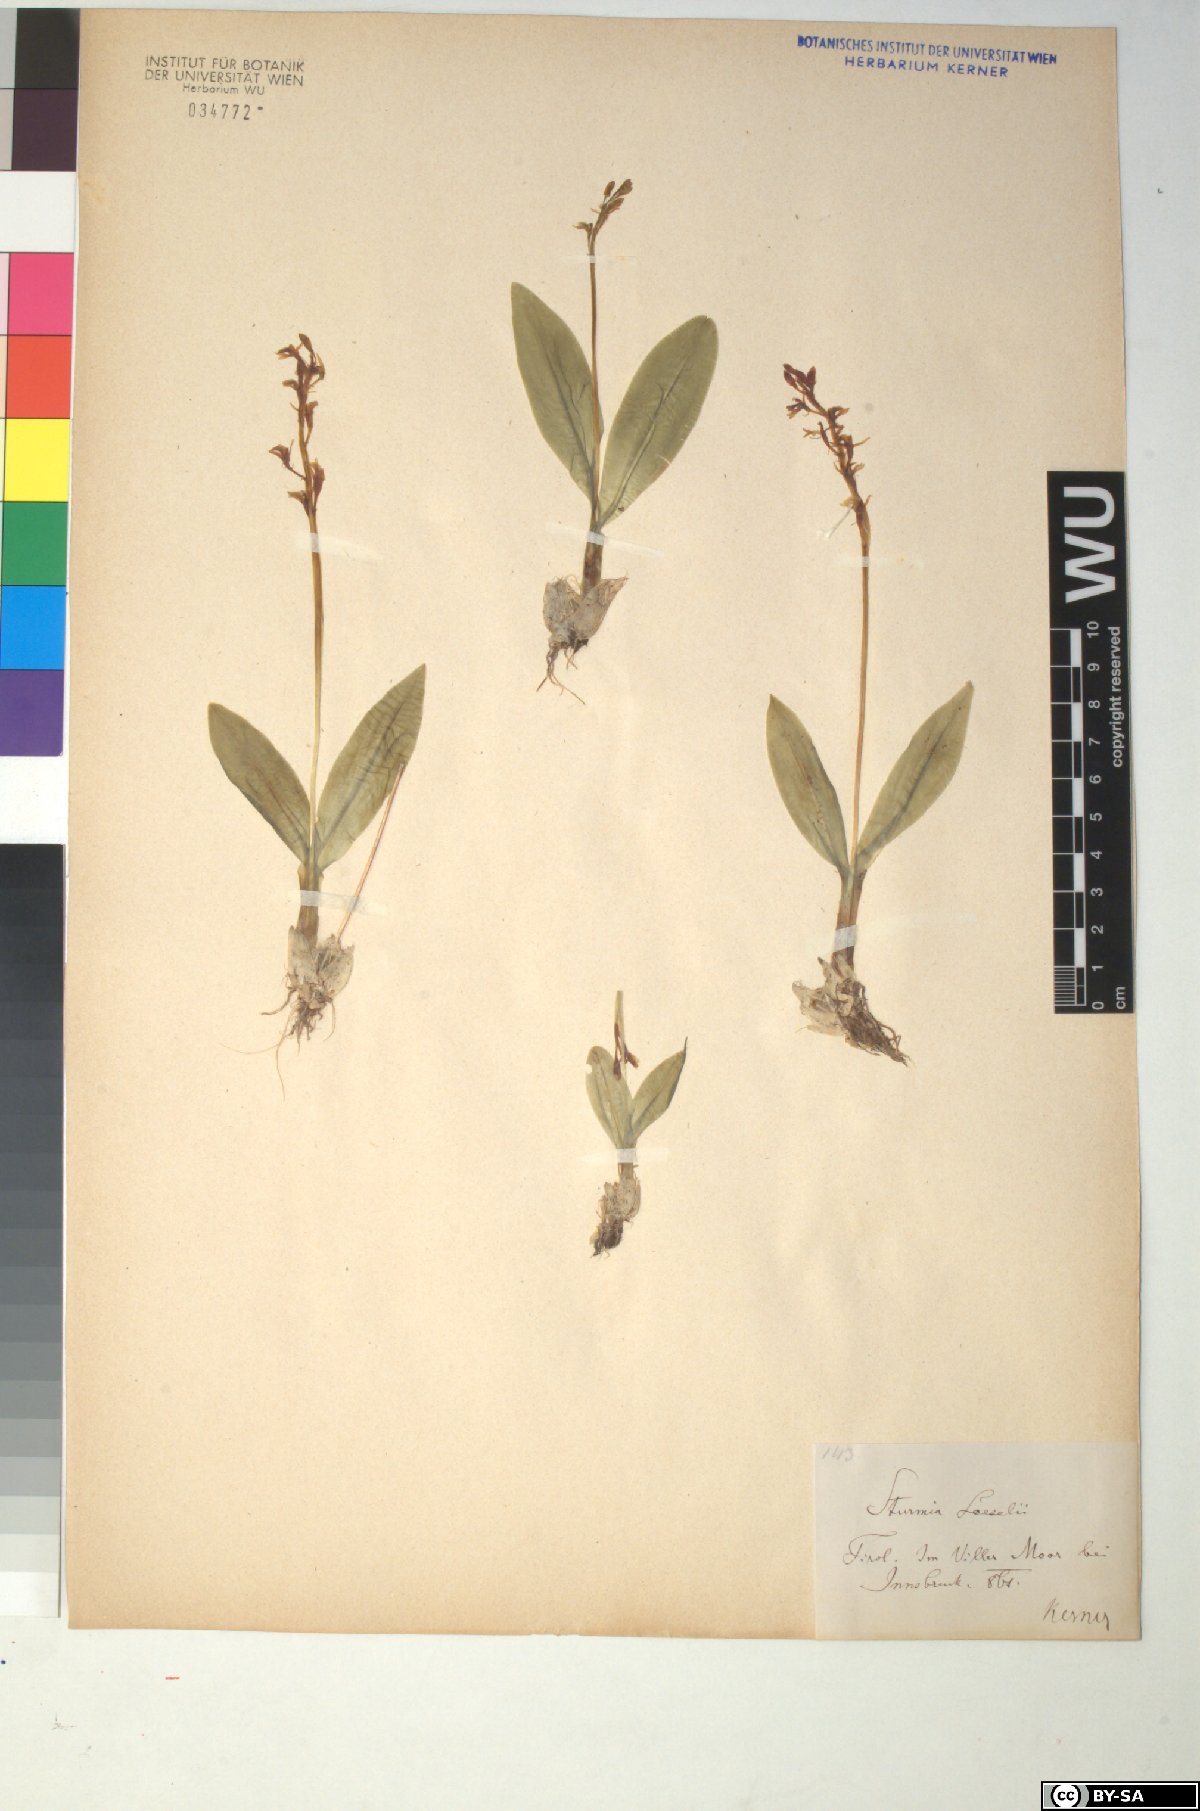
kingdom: Animalia
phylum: Arthropoda
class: Insecta
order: Coleoptera
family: Curculionidae
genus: Liparis
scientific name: Liparis loeselii
